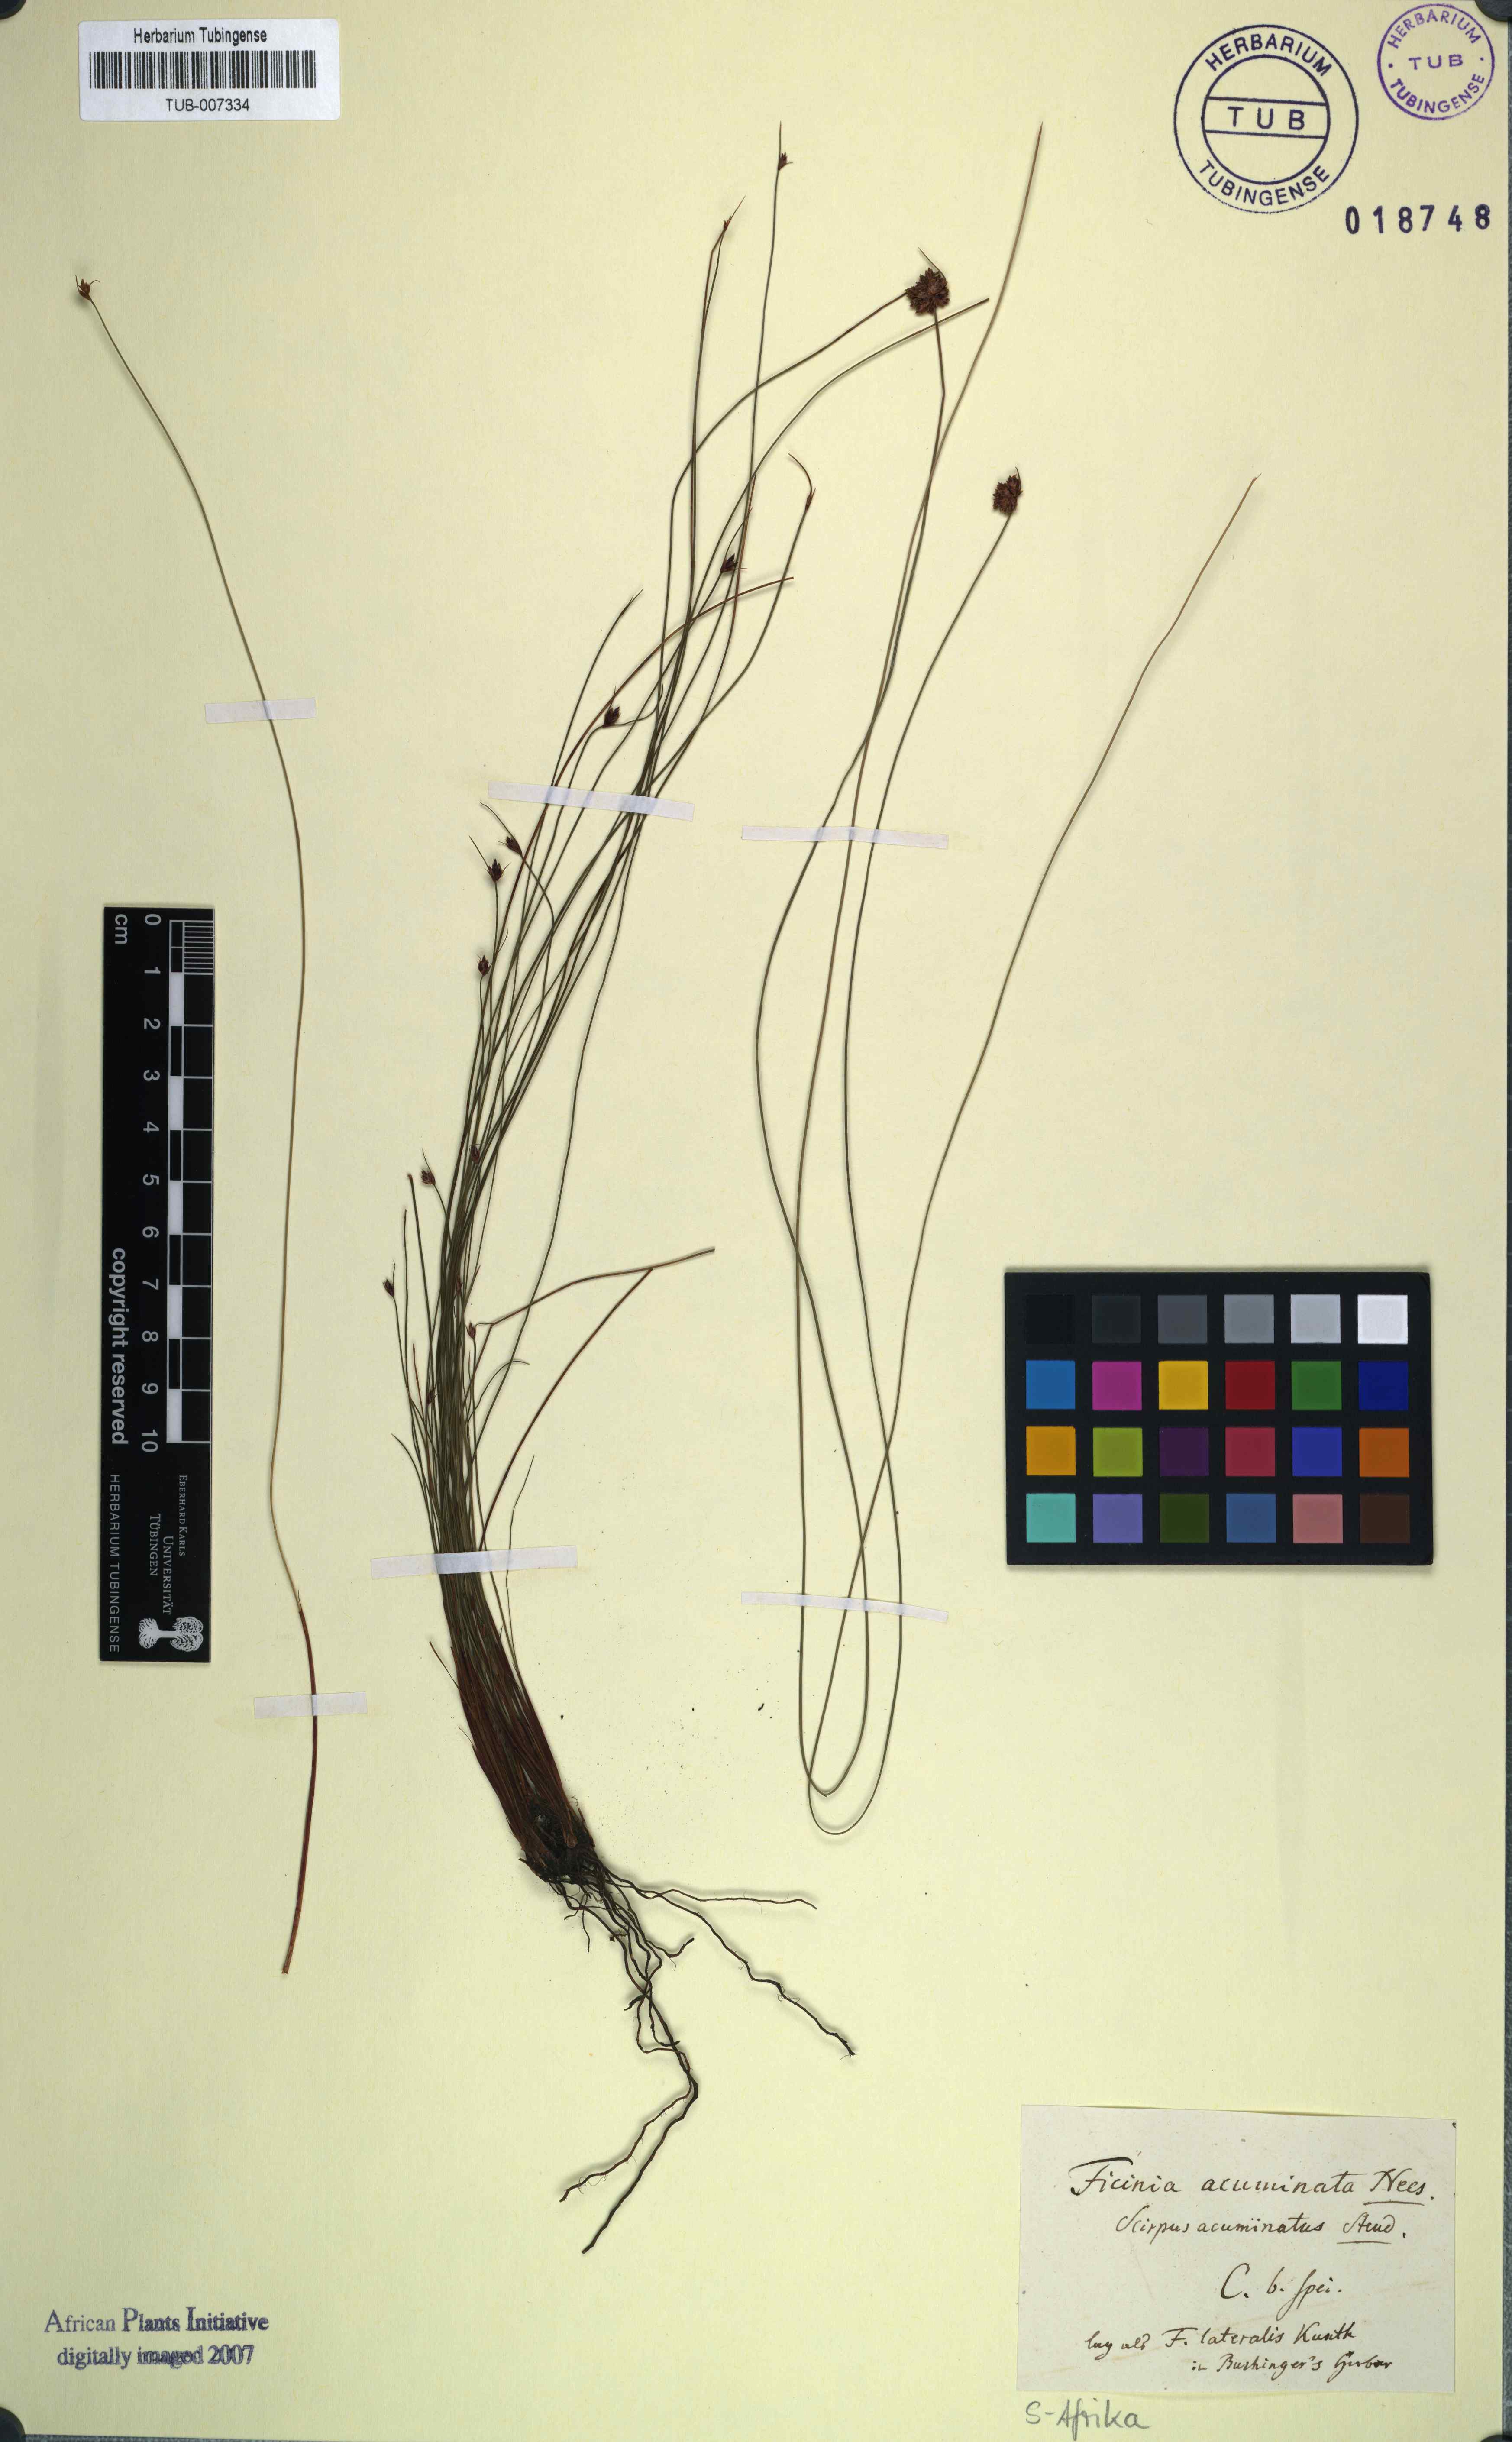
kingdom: Plantae
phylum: Tracheophyta
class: Liliopsida
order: Poales
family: Cyperaceae
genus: Ficinia
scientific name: Ficinia acuminata
